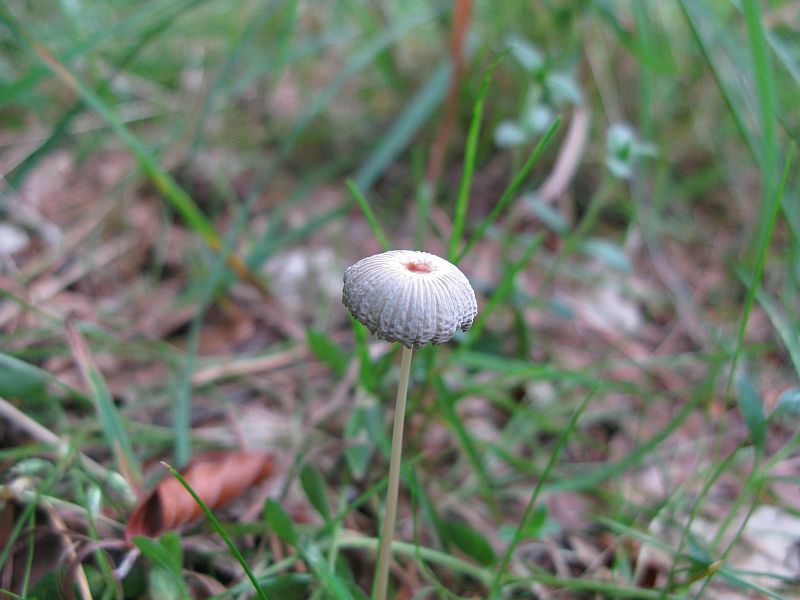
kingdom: Fungi
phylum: Basidiomycota
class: Agaricomycetes
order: Agaricales
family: Psathyrellaceae
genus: Parasola
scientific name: Parasola lactea
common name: glat hjulhat
